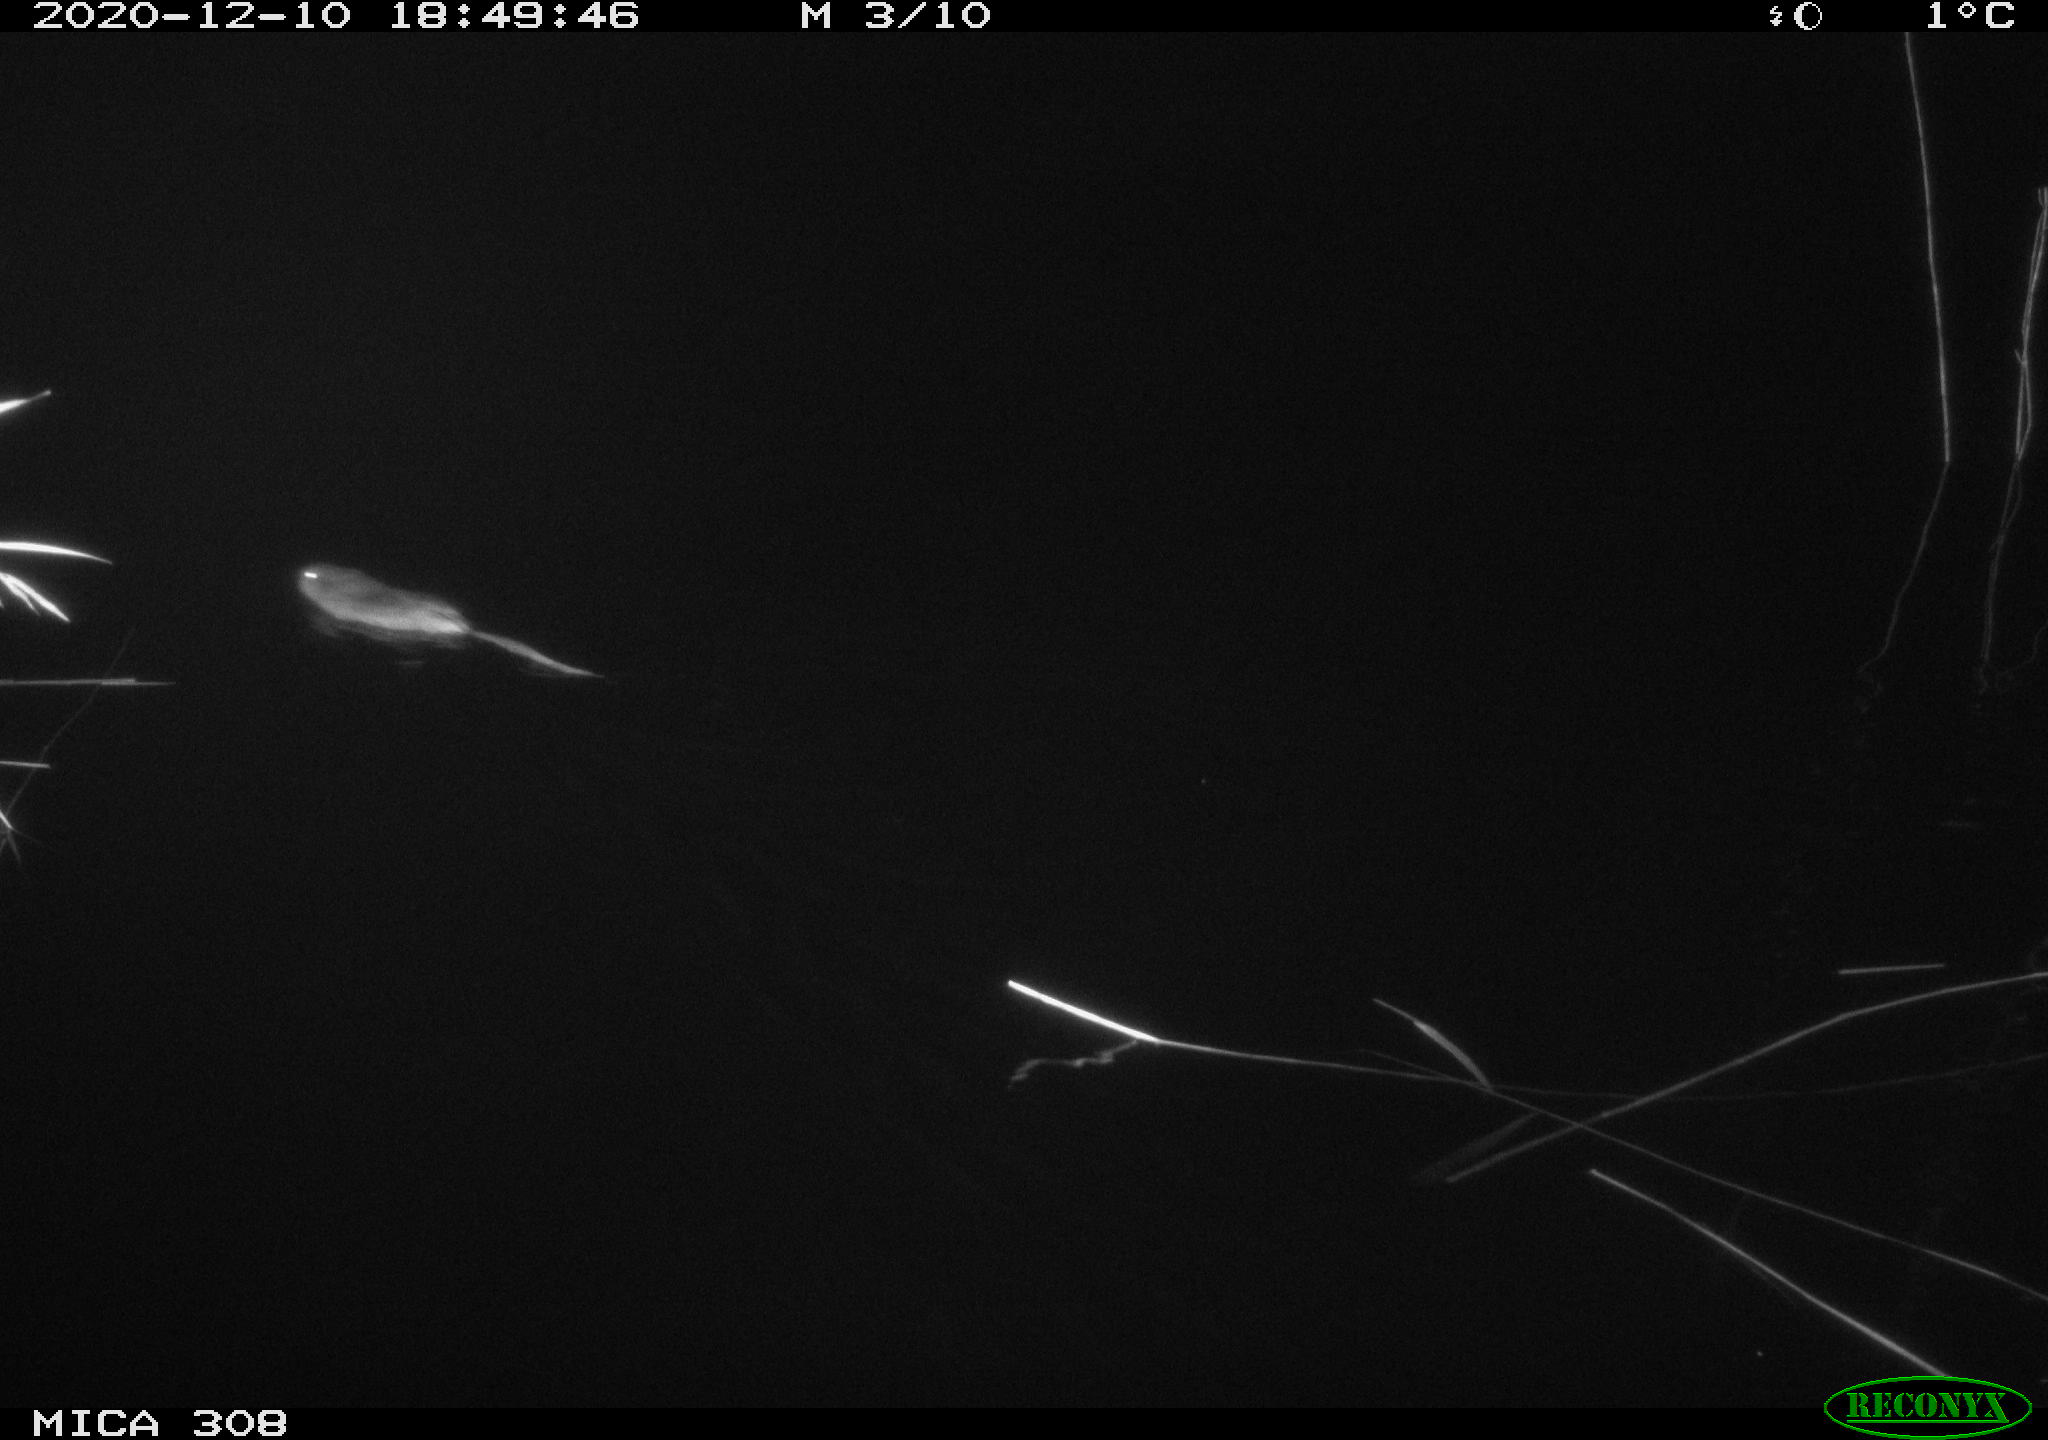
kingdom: Animalia
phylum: Chordata
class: Mammalia
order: Rodentia
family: Cricetidae
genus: Ondatra
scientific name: Ondatra zibethicus
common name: Muskrat
